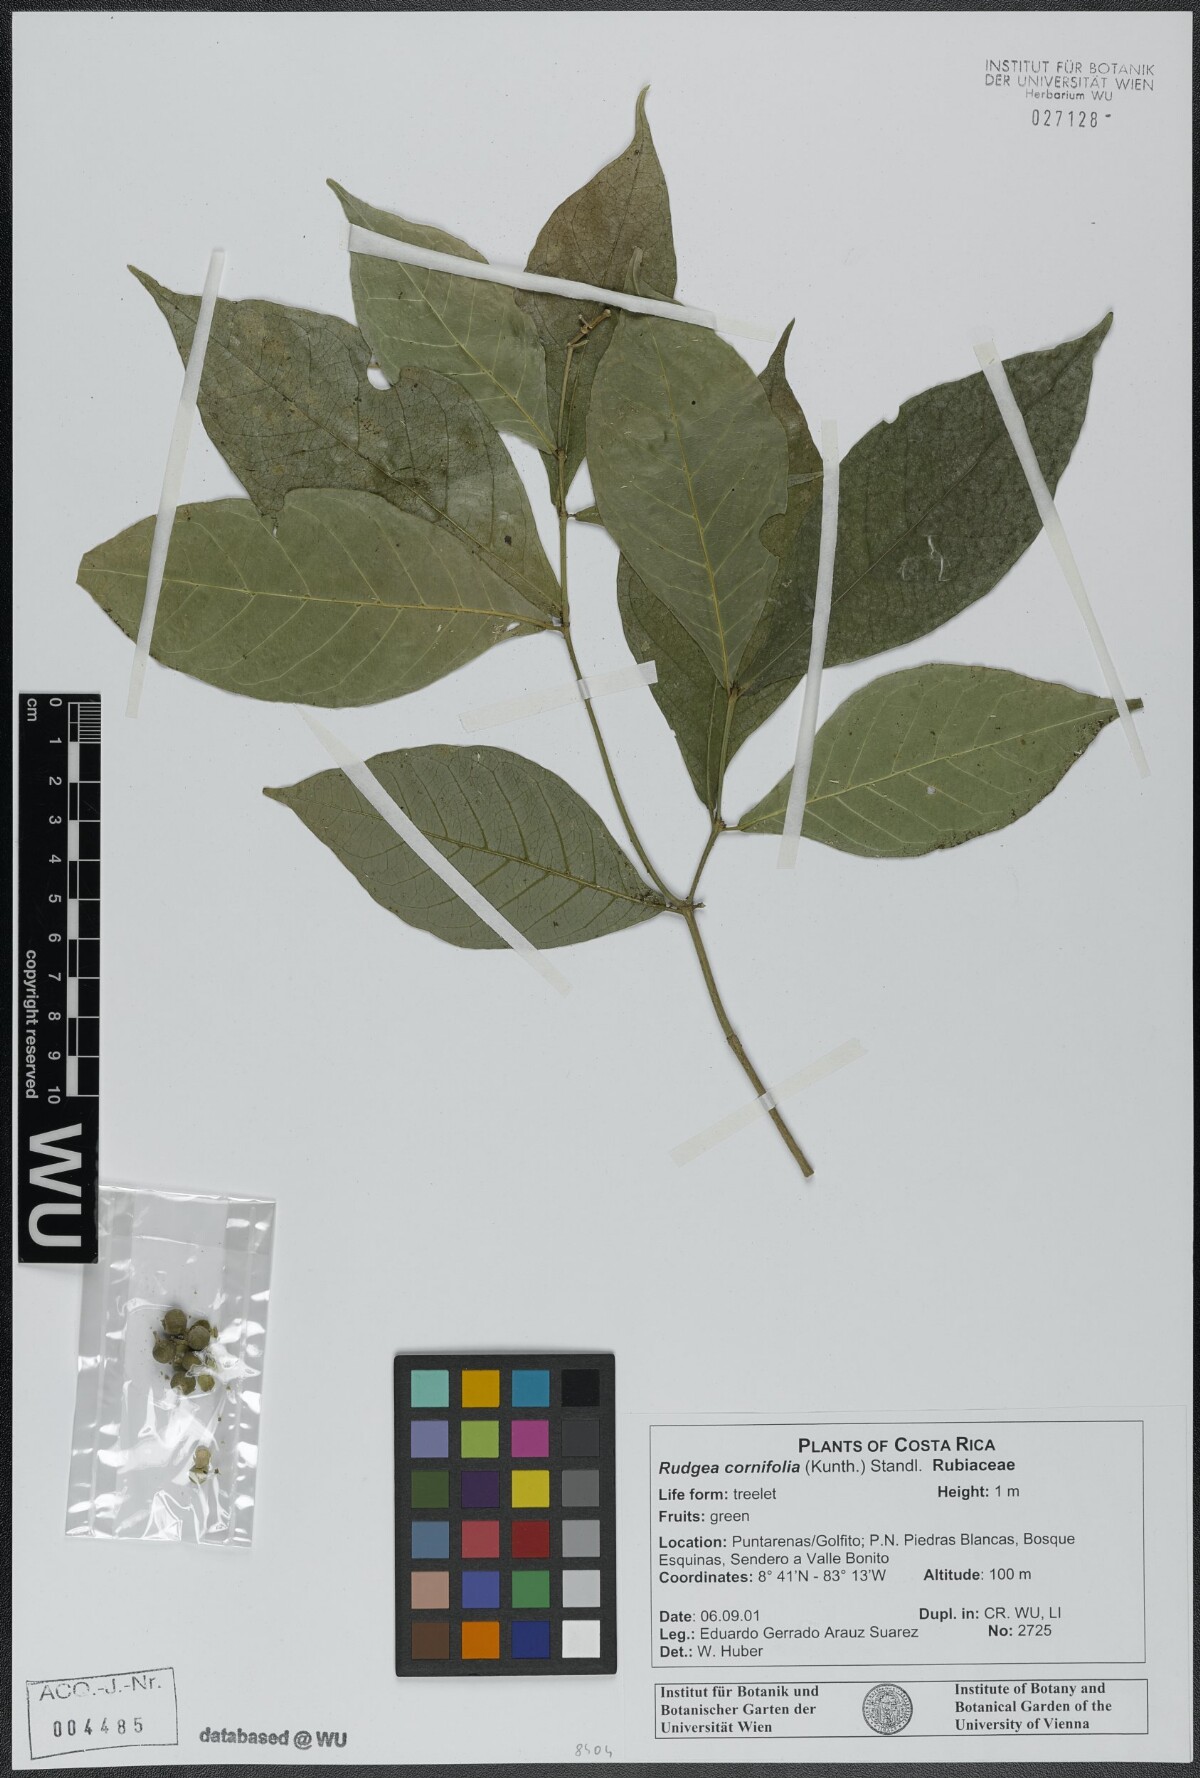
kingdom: Plantae
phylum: Tracheophyta
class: Magnoliopsida
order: Gentianales
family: Rubiaceae
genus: Rudgea
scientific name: Rudgea cornifolia
